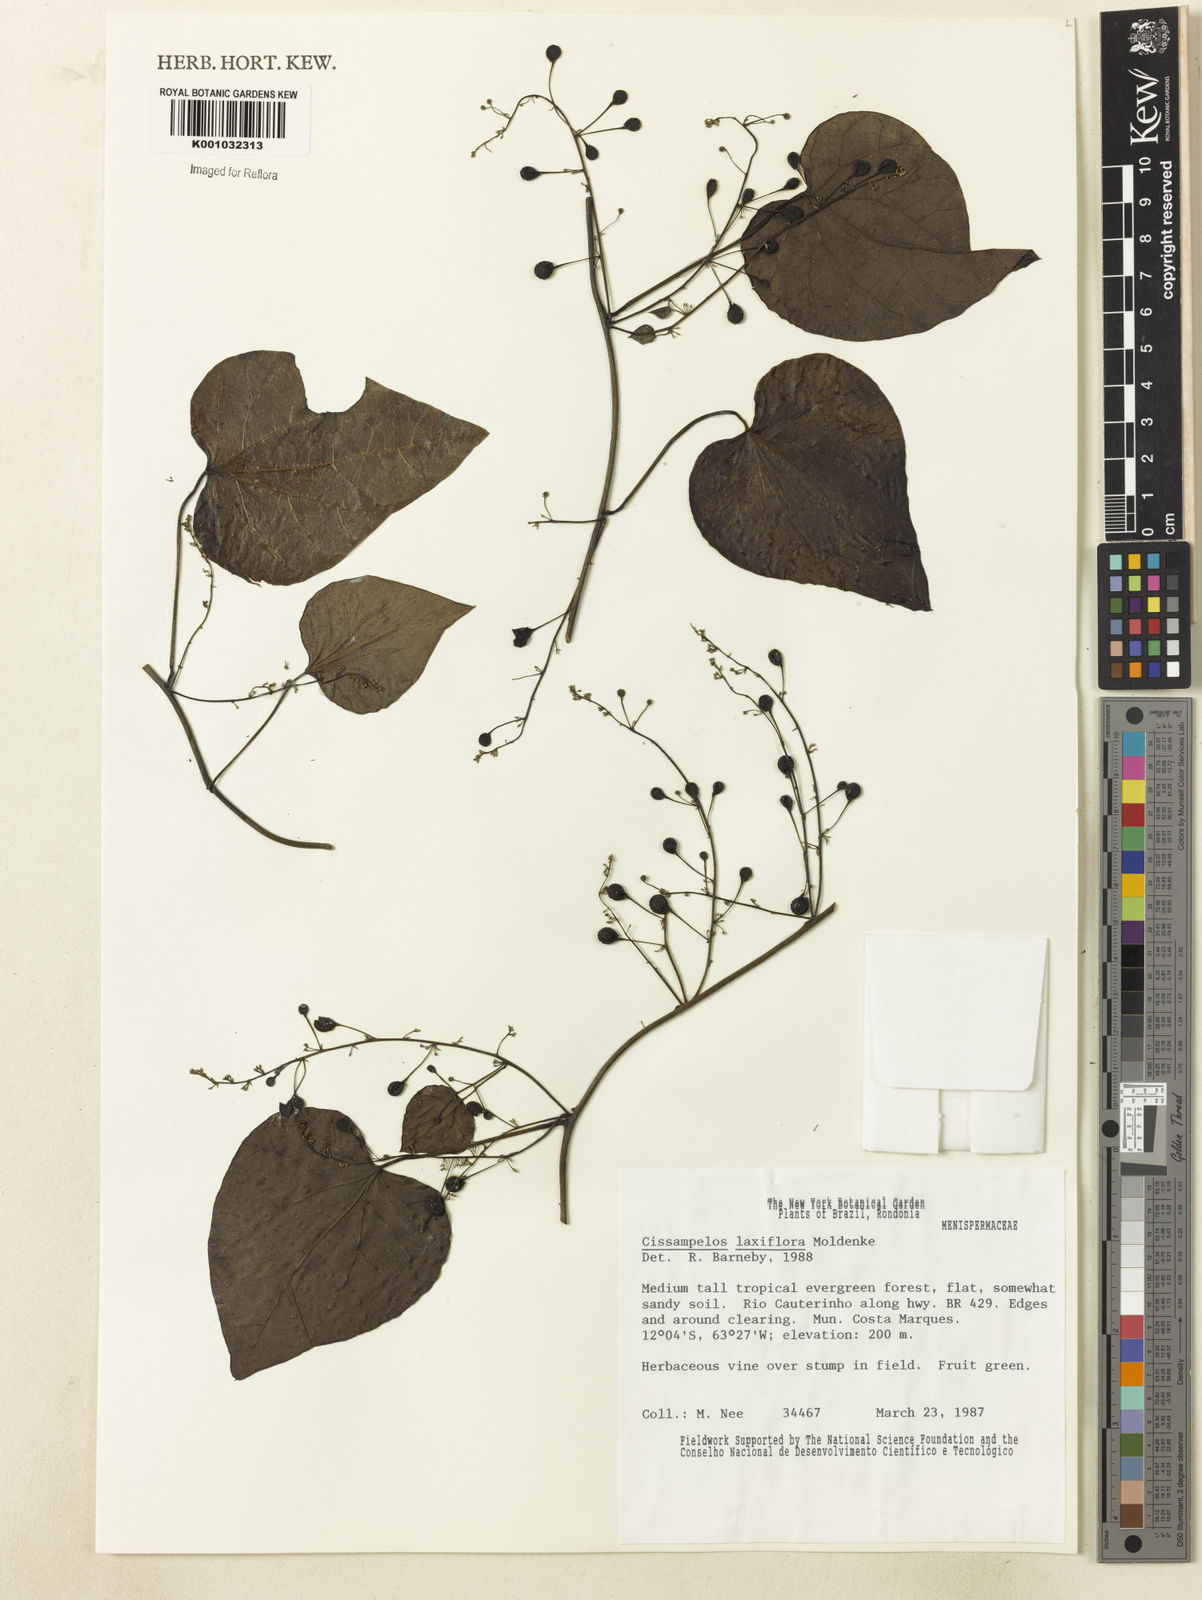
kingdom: Plantae
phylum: Tracheophyta
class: Magnoliopsida
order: Ranunculales
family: Menispermaceae
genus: Cissampelos
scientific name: Cissampelos laxiflora
